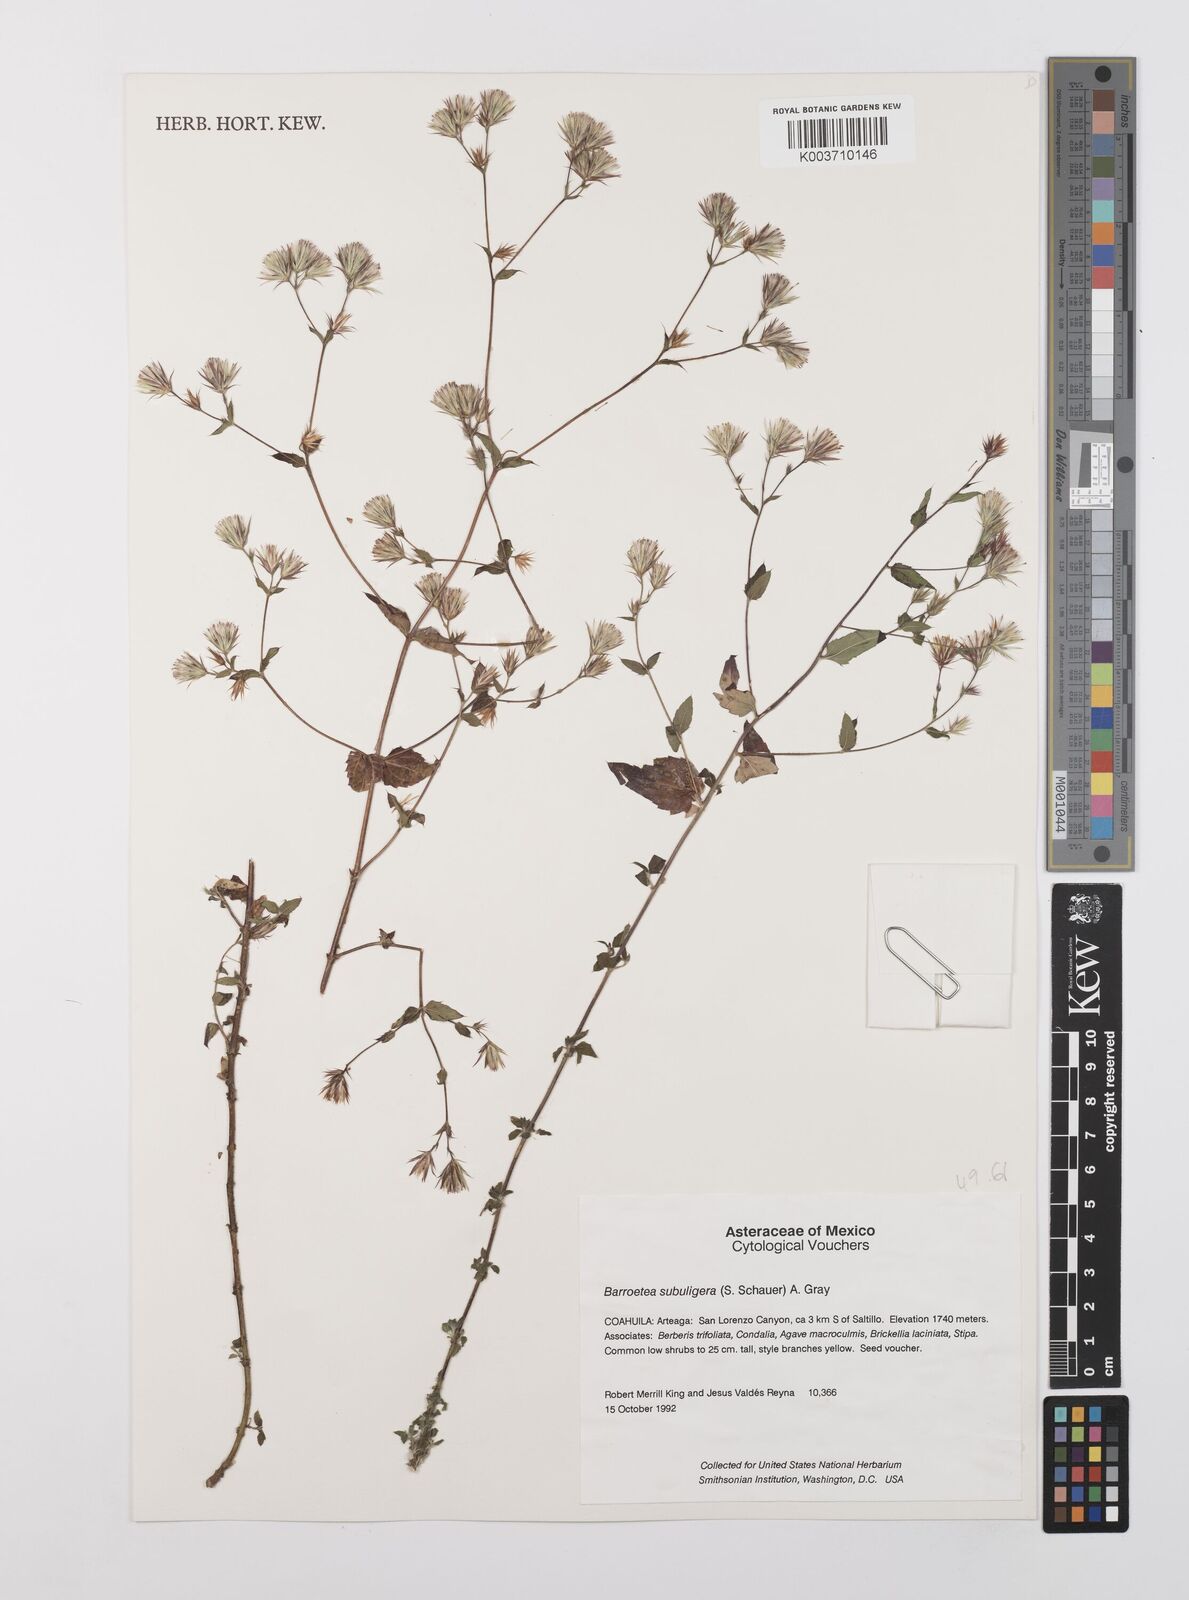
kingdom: Plantae
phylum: Tracheophyta
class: Magnoliopsida
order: Asterales
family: Asteraceae
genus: Brickellia
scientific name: Brickellia subuligera
